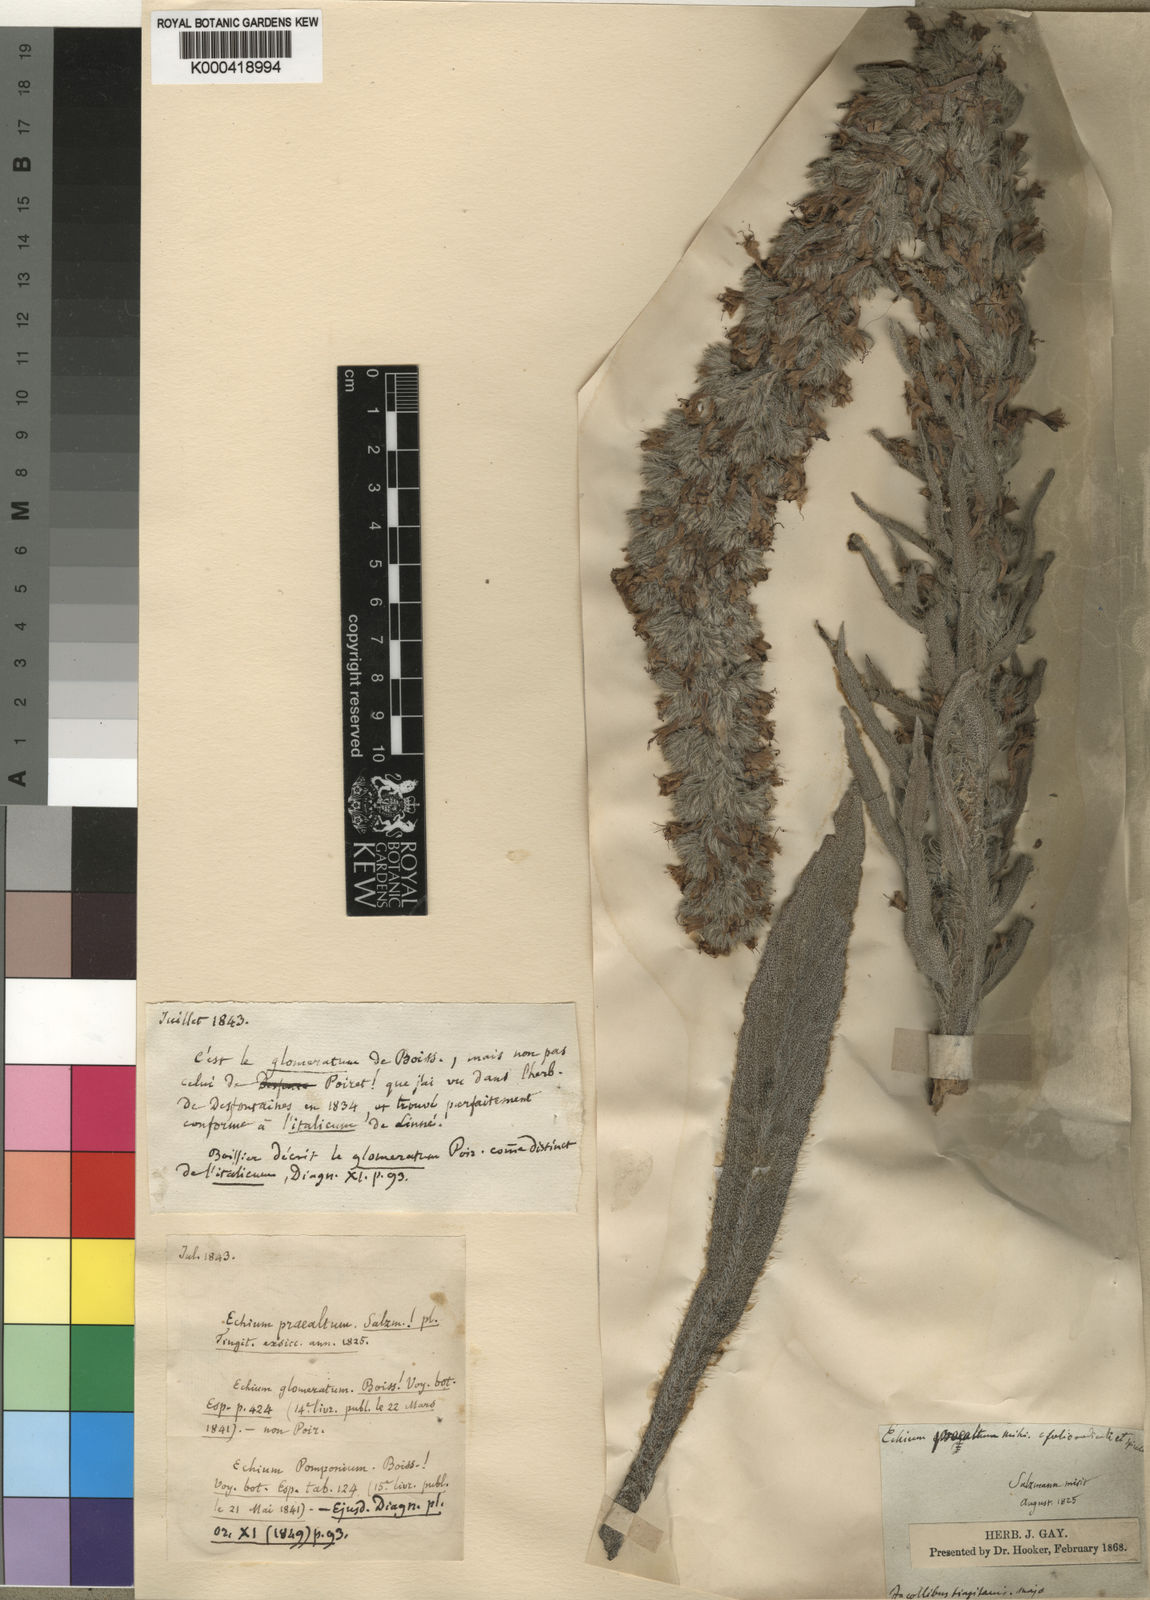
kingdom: Plantae
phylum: Tracheophyta
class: Magnoliopsida
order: Boraginales
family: Boraginaceae
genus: Echium
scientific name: Echium boissieri
